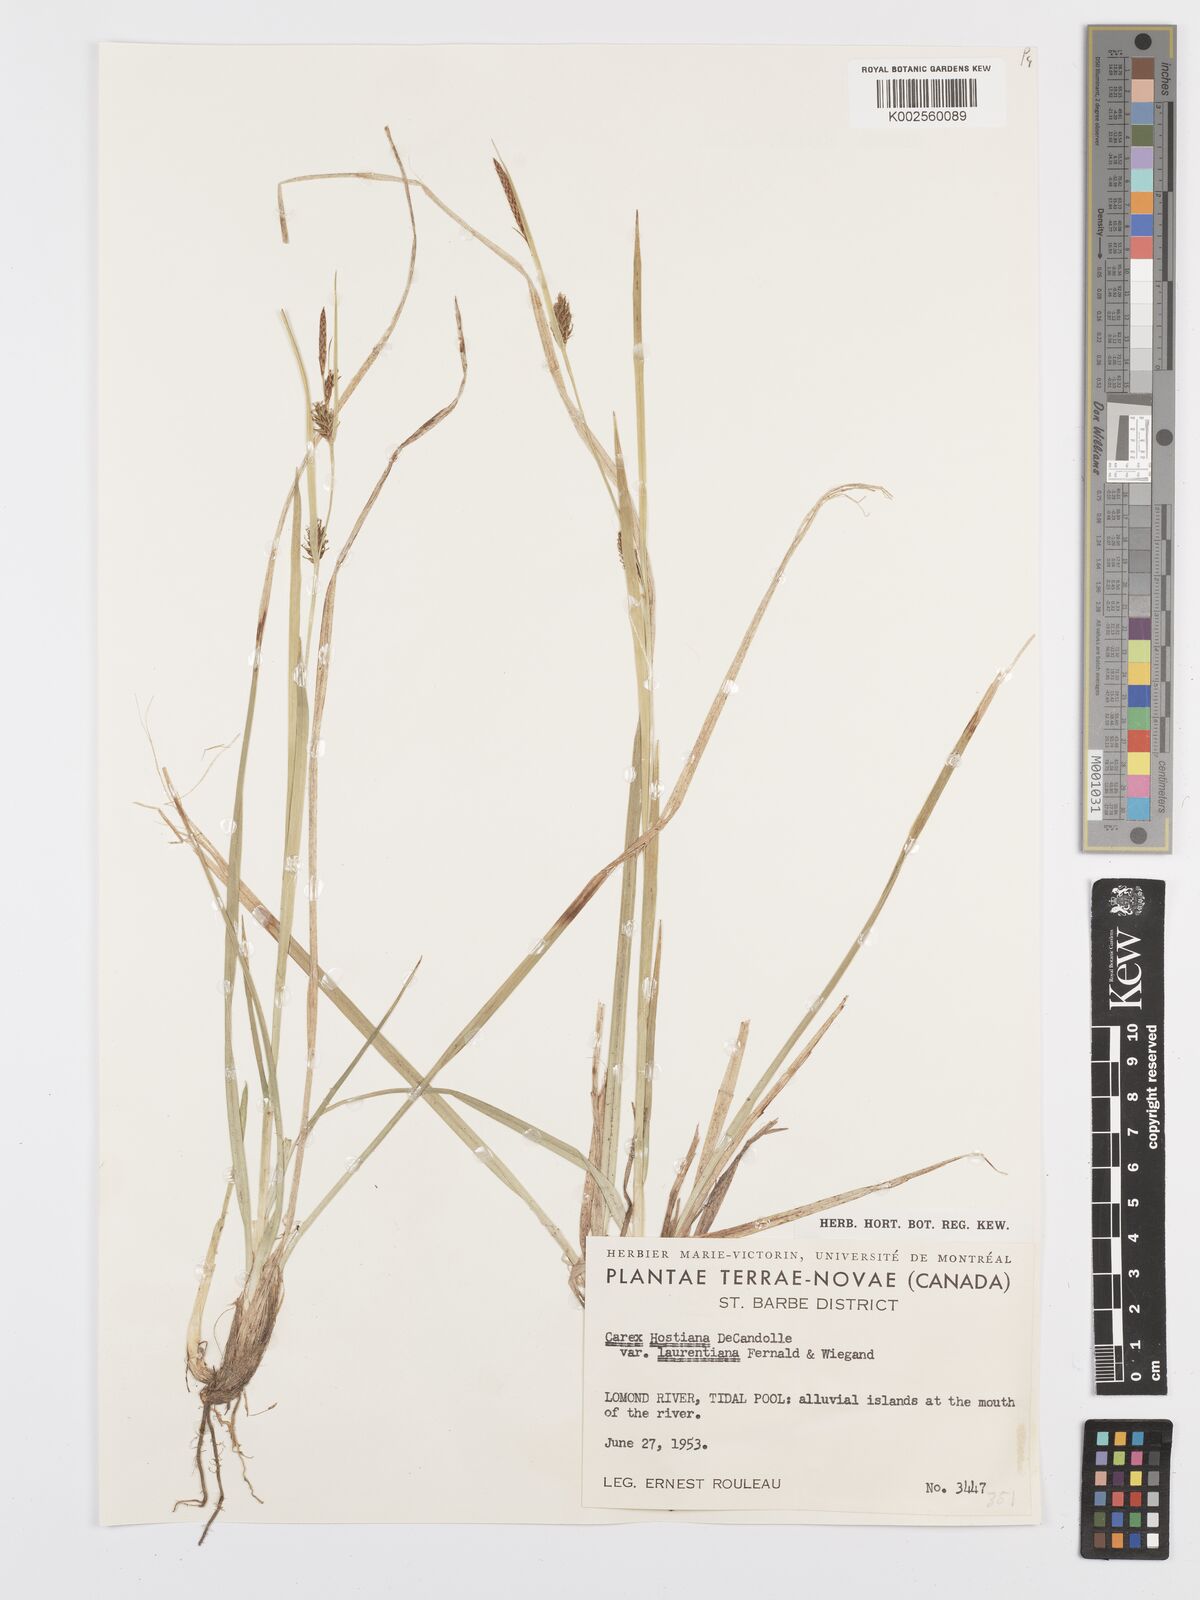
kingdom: Plantae
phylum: Tracheophyta
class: Liliopsida
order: Poales
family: Cyperaceae
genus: Carex
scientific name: Carex hostiana
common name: Tawny sedge
